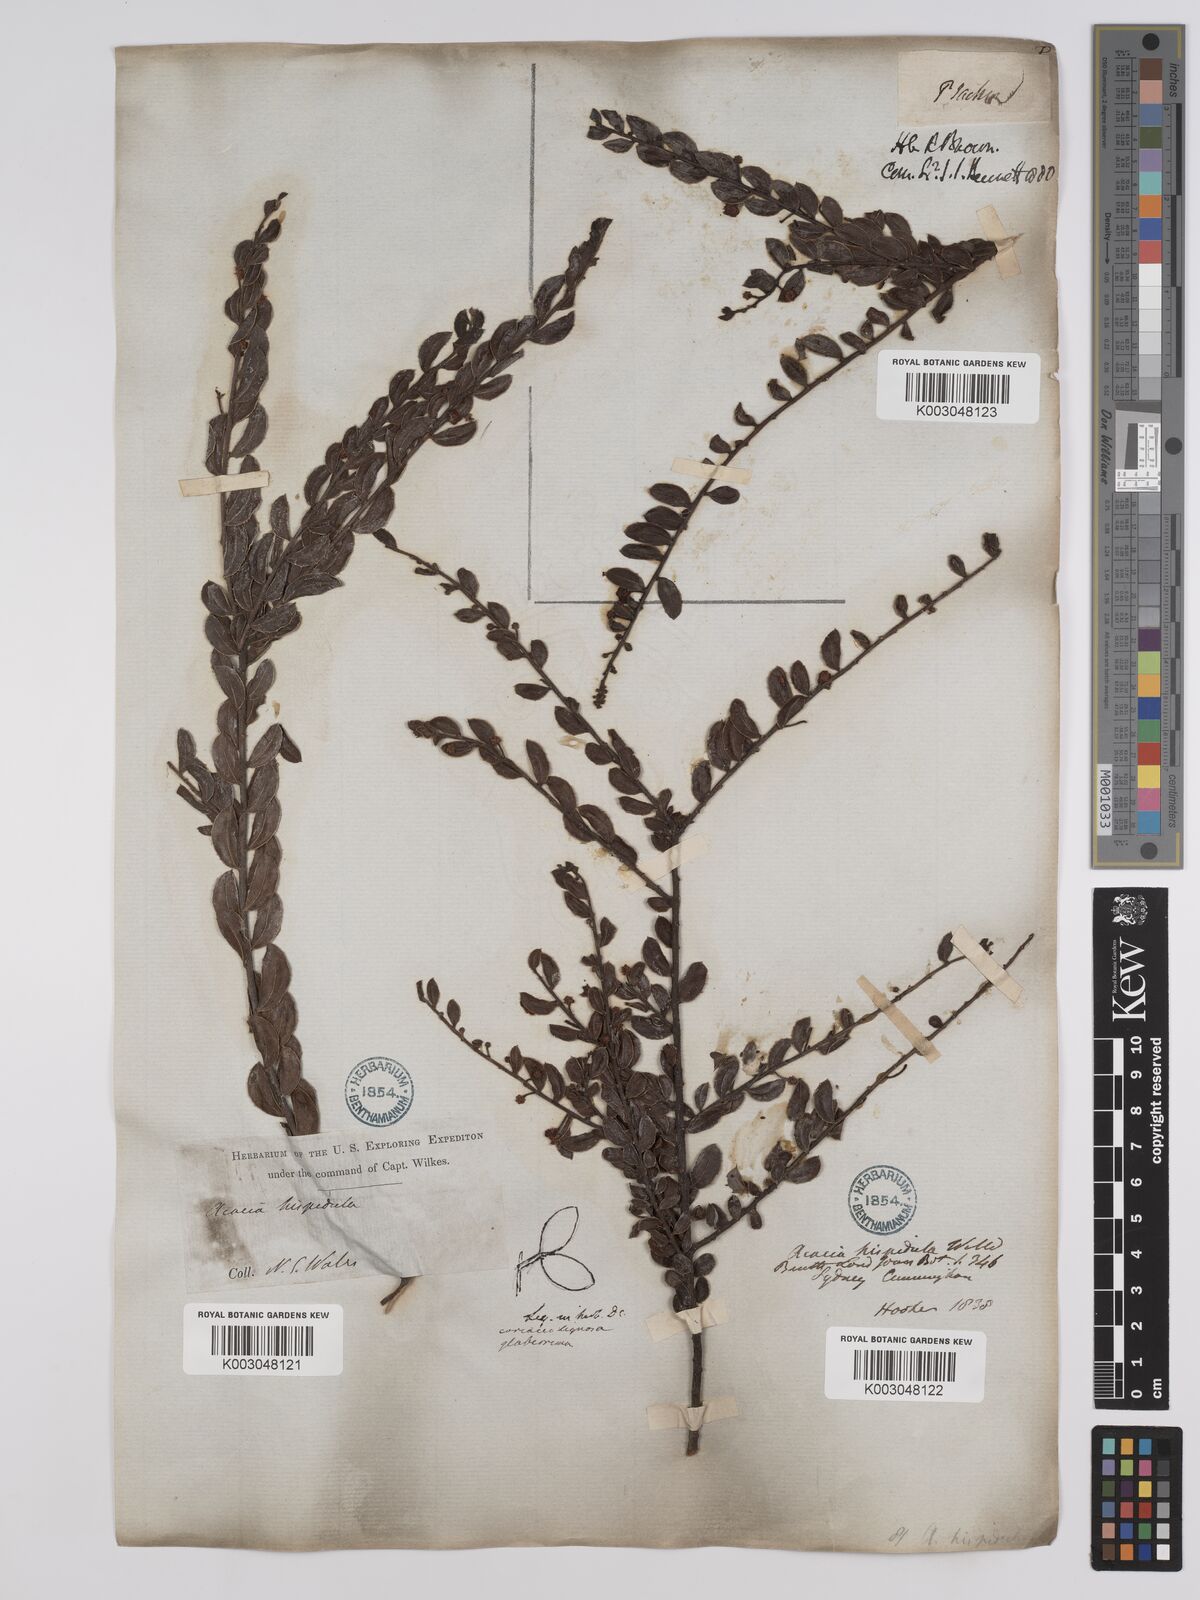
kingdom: Plantae
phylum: Tracheophyta
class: Magnoliopsida
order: Fabales
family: Fabaceae
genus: Acacia
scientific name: Acacia hispidula
